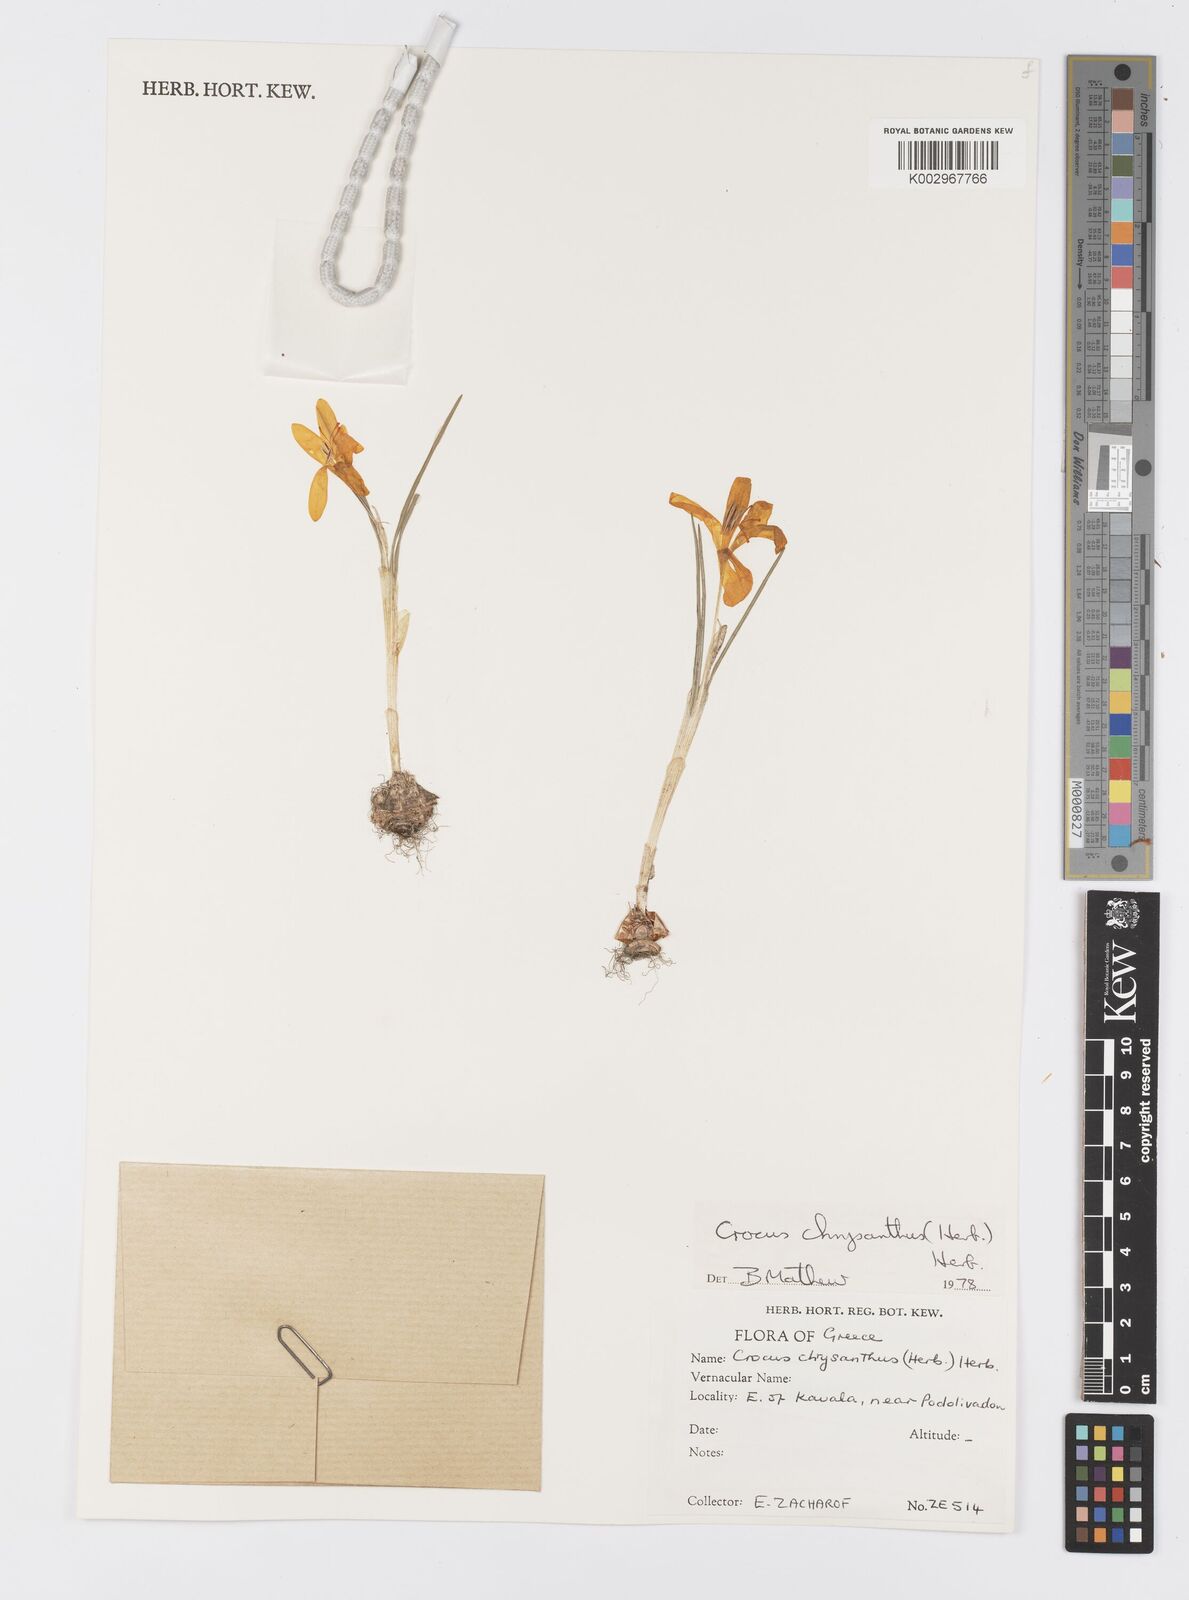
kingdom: Plantae
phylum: Tracheophyta
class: Liliopsida
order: Asparagales
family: Iridaceae
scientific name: Iridaceae
